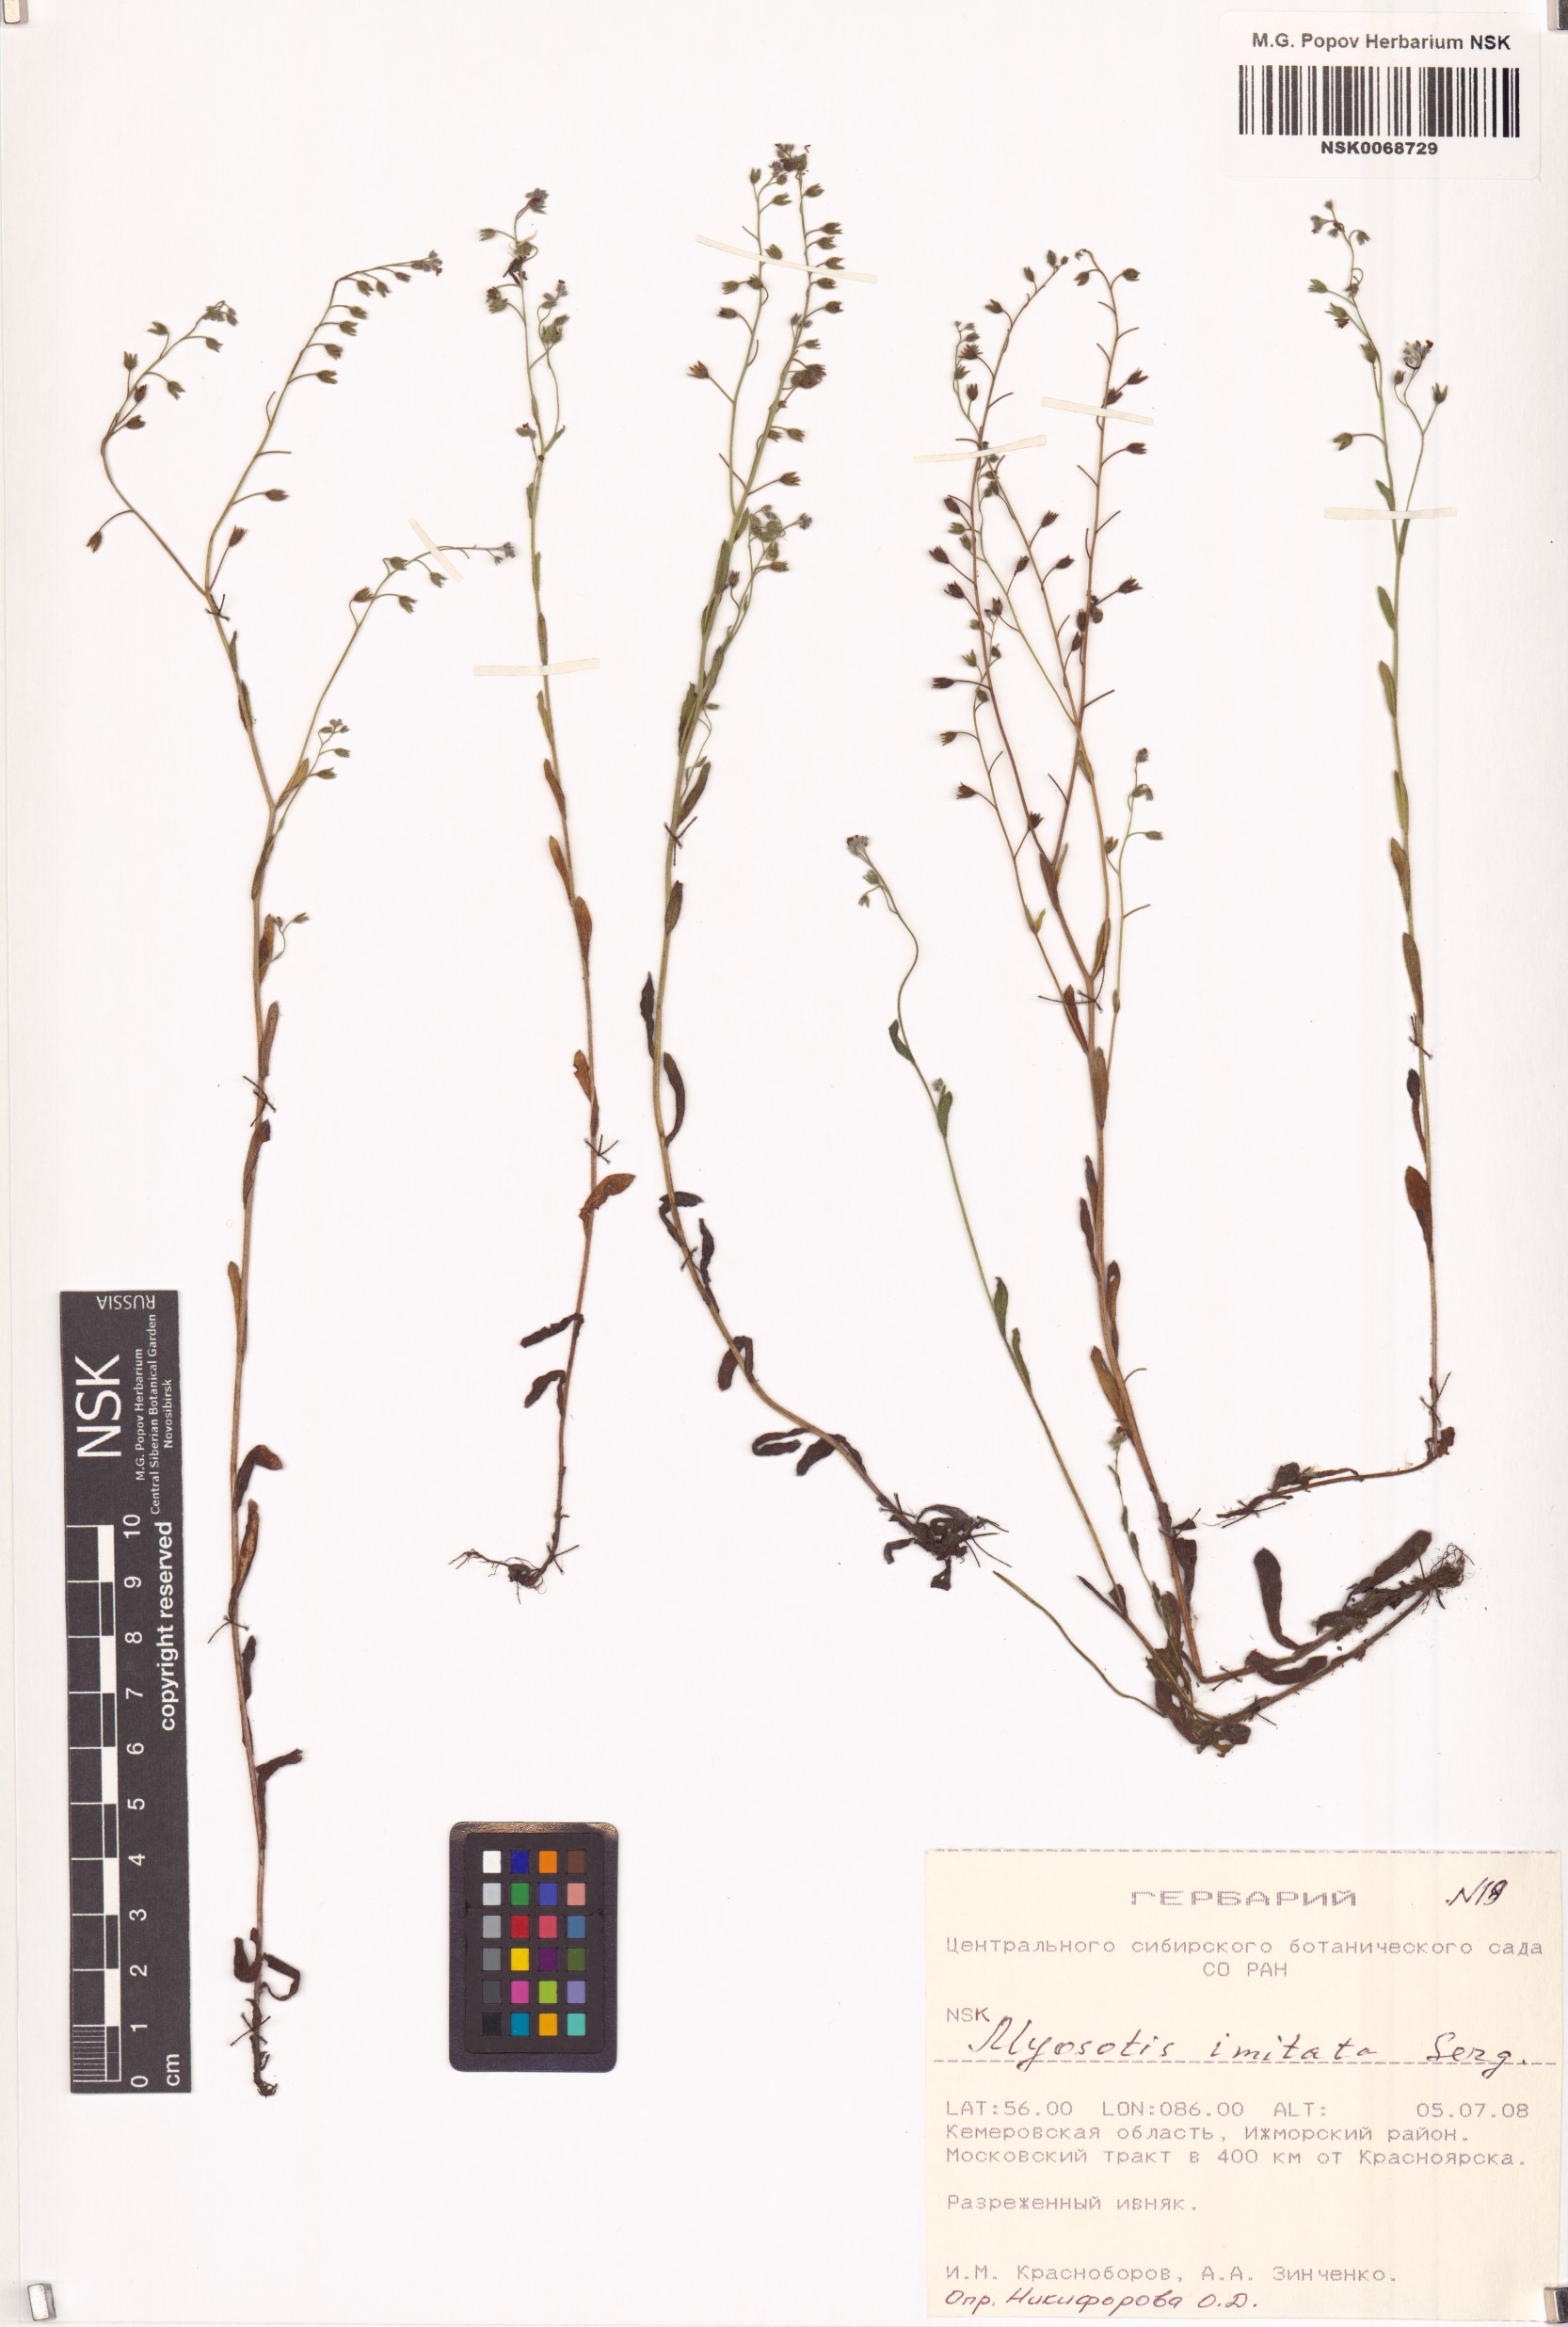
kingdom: Plantae
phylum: Tracheophyta
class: Magnoliopsida
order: Boraginales
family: Boraginaceae
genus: Myosotis
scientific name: Myosotis imitata
